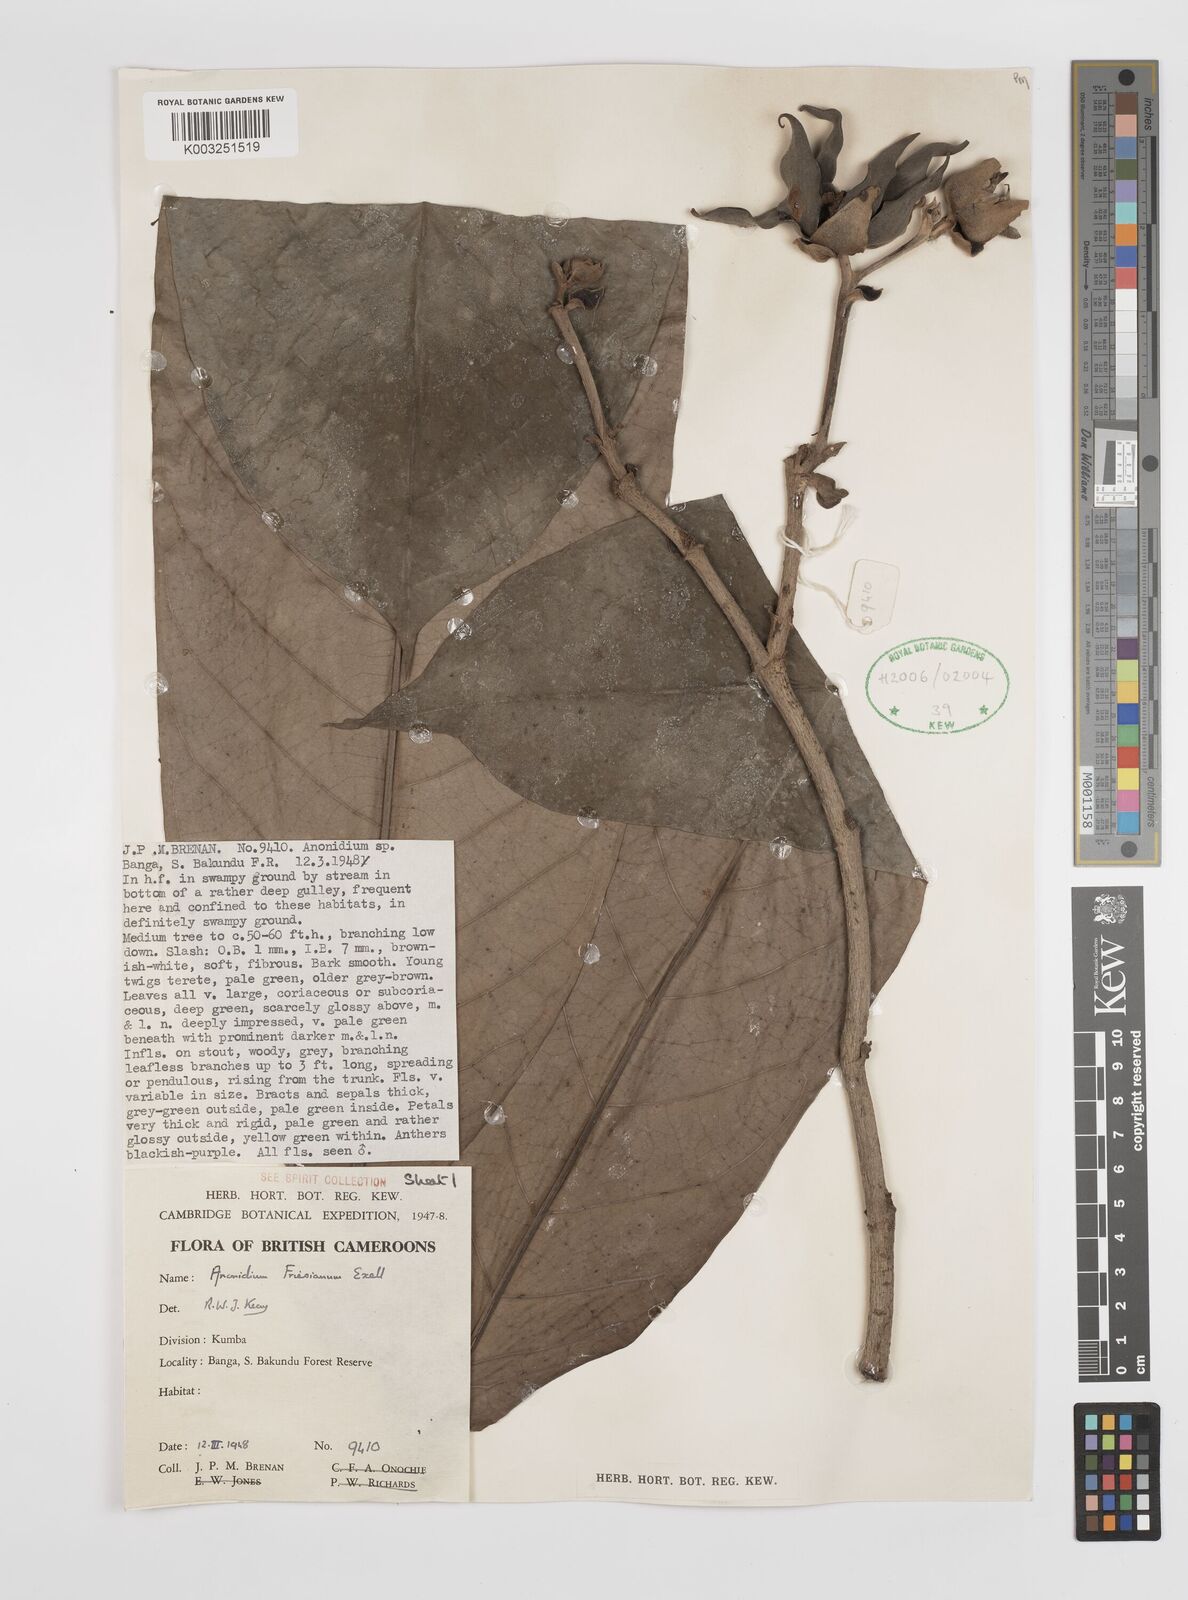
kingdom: Plantae
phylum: Tracheophyta
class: Magnoliopsida
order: Magnoliales
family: Annonaceae
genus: Anonidium
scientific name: Anonidium mannii
